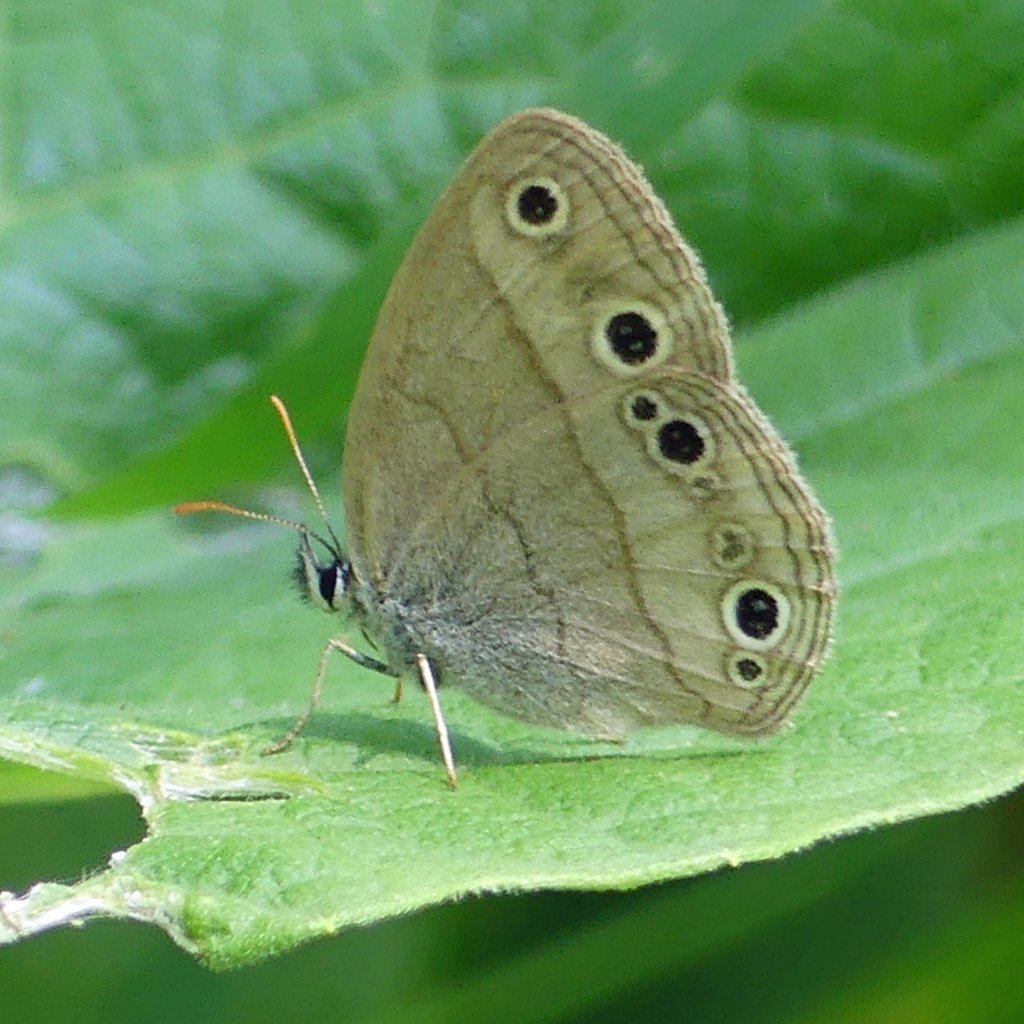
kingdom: Animalia
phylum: Arthropoda
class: Insecta
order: Lepidoptera
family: Nymphalidae
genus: Euptychia
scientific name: Euptychia cymela
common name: Little Wood Satyr
